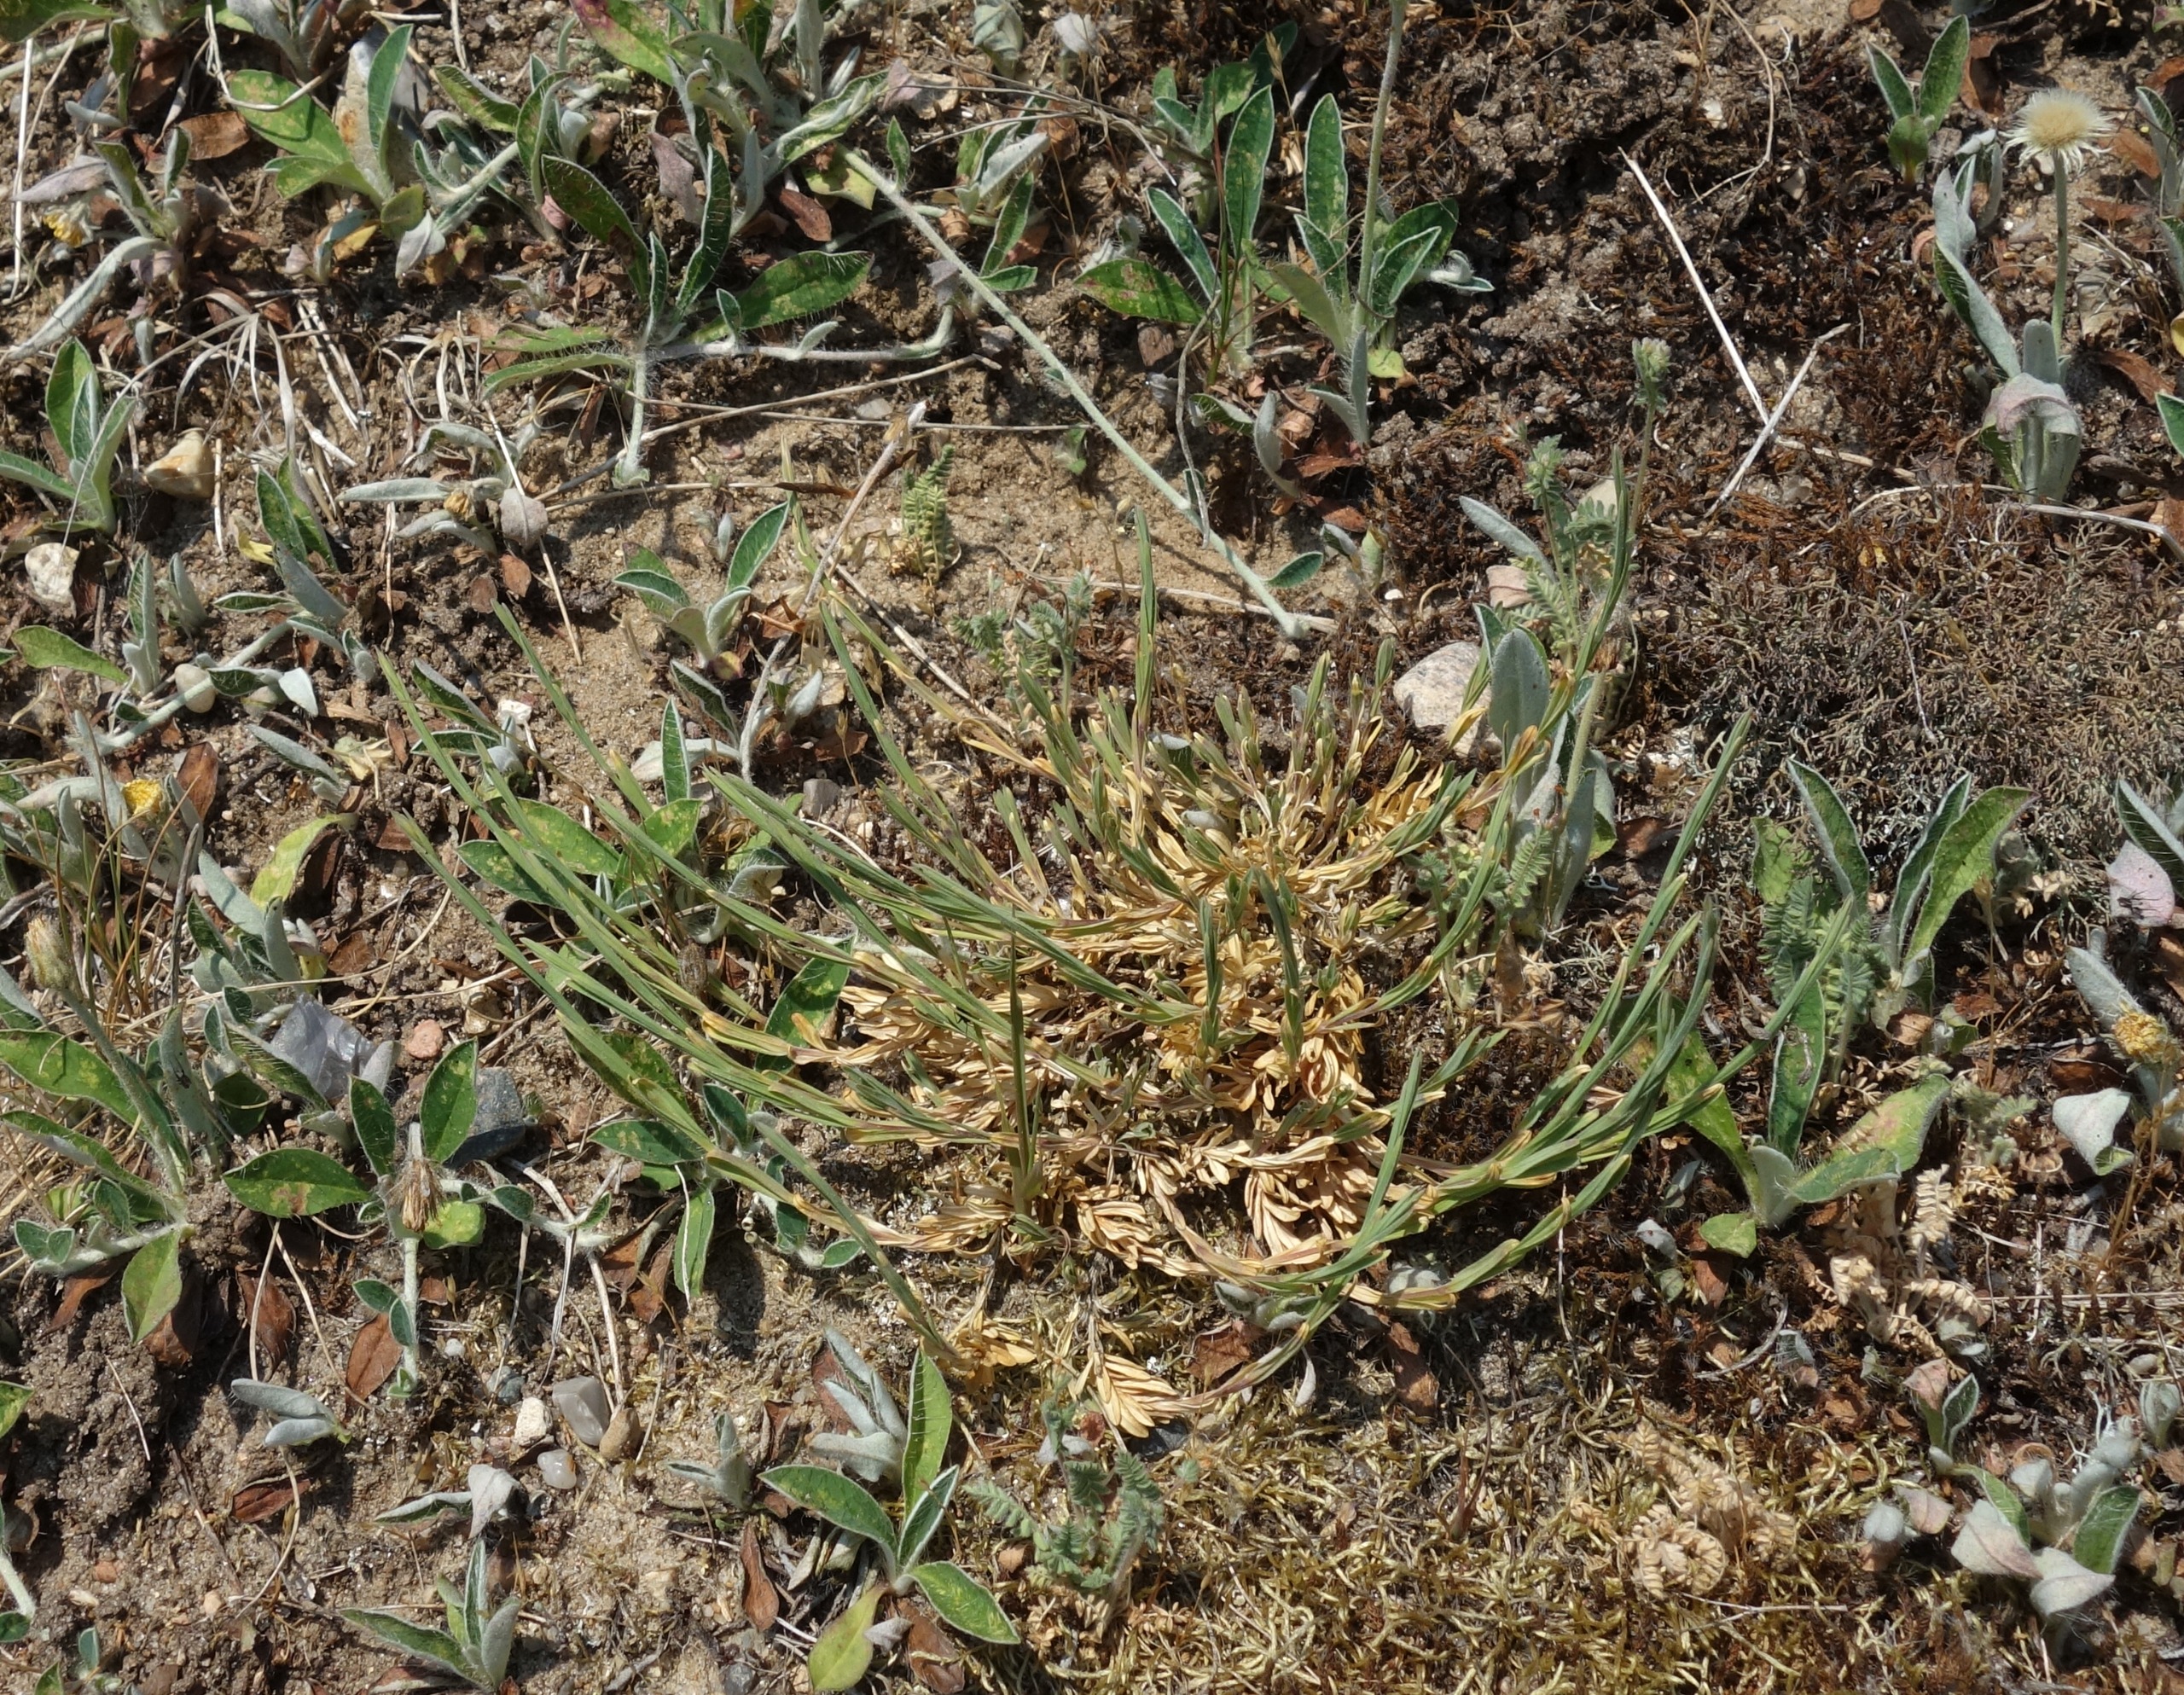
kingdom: Plantae
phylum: Tracheophyta
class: Magnoliopsida
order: Caryophyllales
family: Caryophyllaceae
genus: Dianthus
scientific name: Dianthus deltoides
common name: Bakke-nellike
